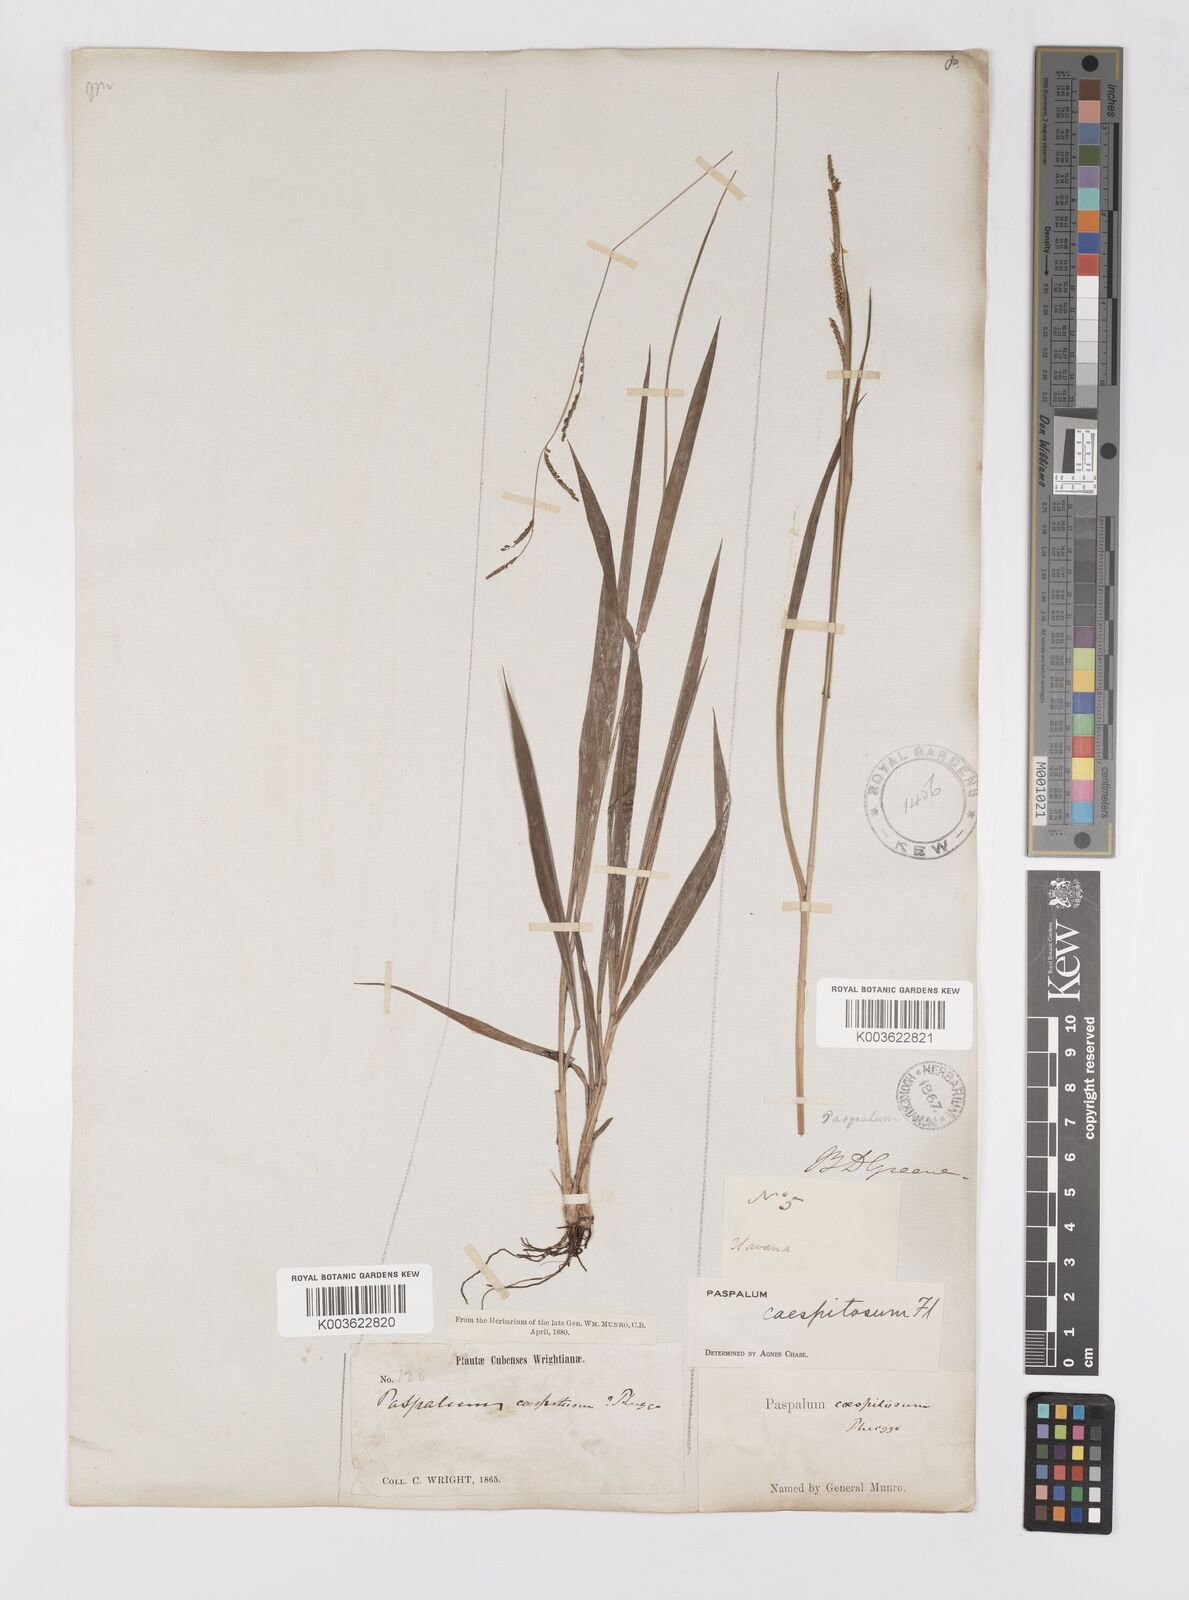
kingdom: Plantae
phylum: Tracheophyta
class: Liliopsida
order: Poales
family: Poaceae
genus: Paspalum
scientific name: Paspalum caespitosum
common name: Blue crowngrass
